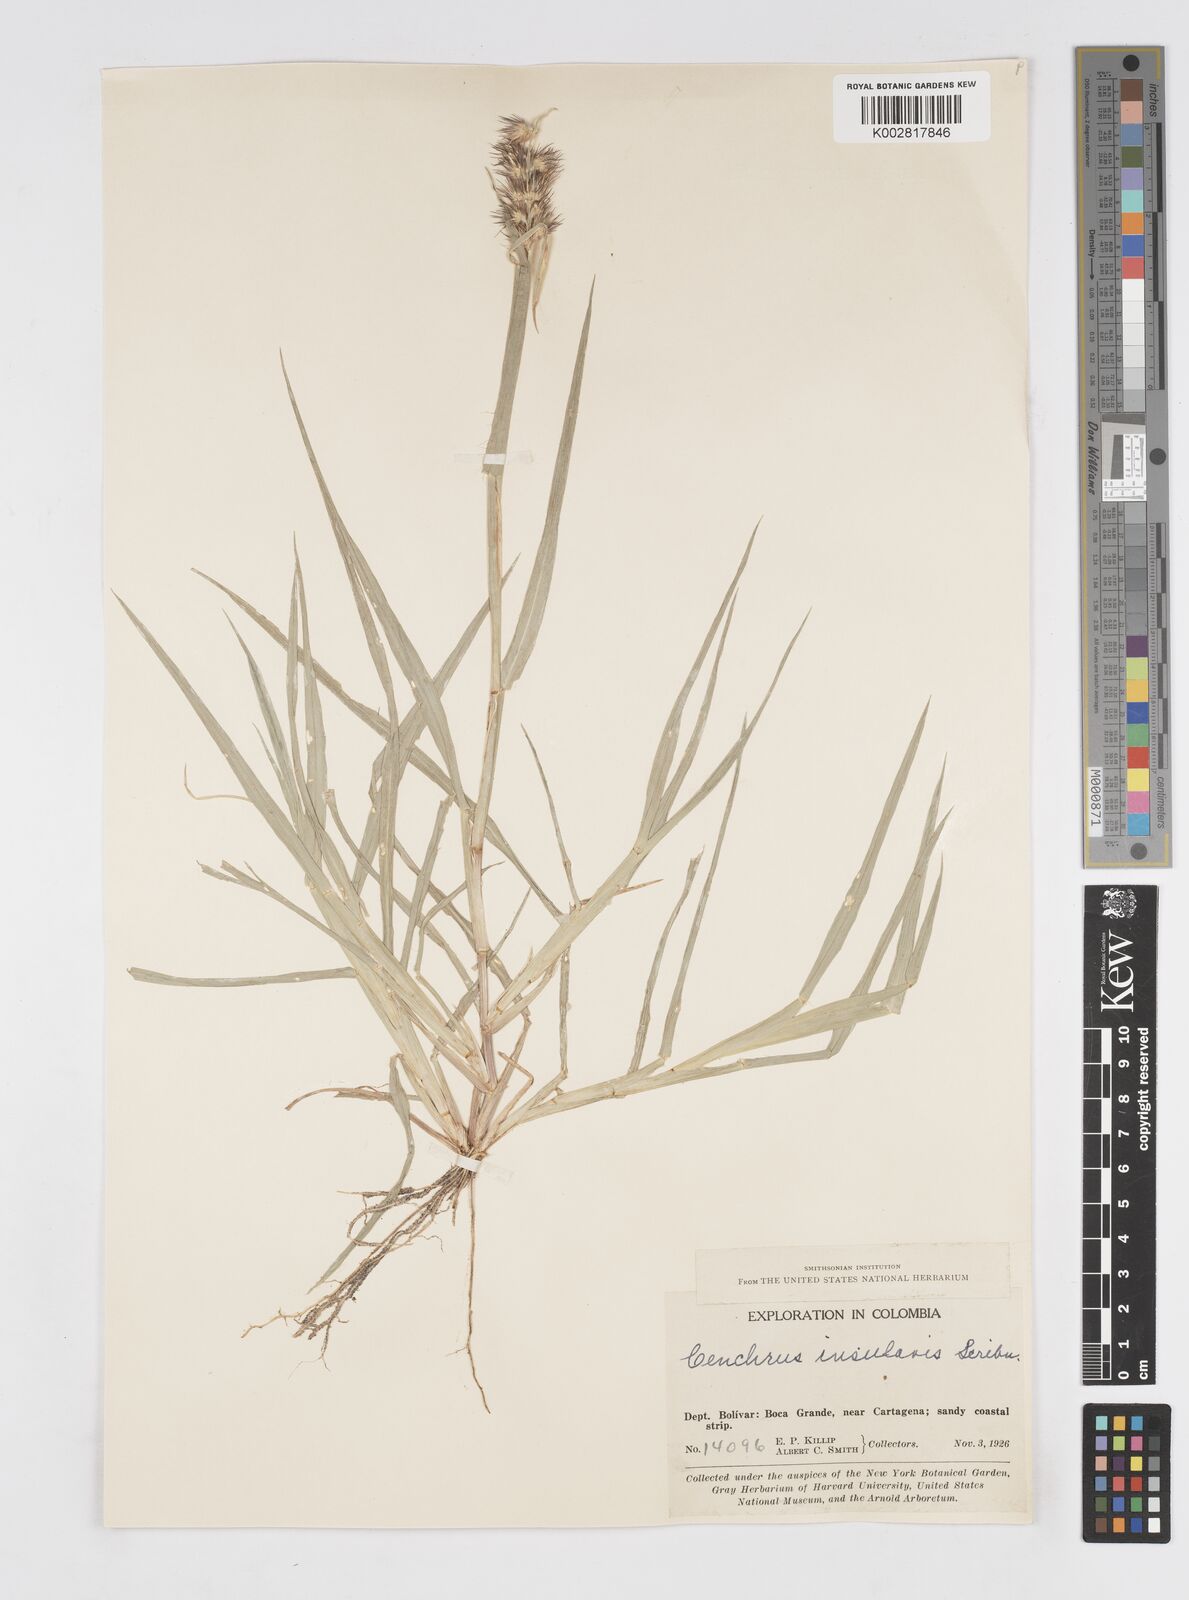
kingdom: Plantae
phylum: Tracheophyta
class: Liliopsida
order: Poales
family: Poaceae
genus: Cenchrus
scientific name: Cenchrus echinatus
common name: Southern sandbur
